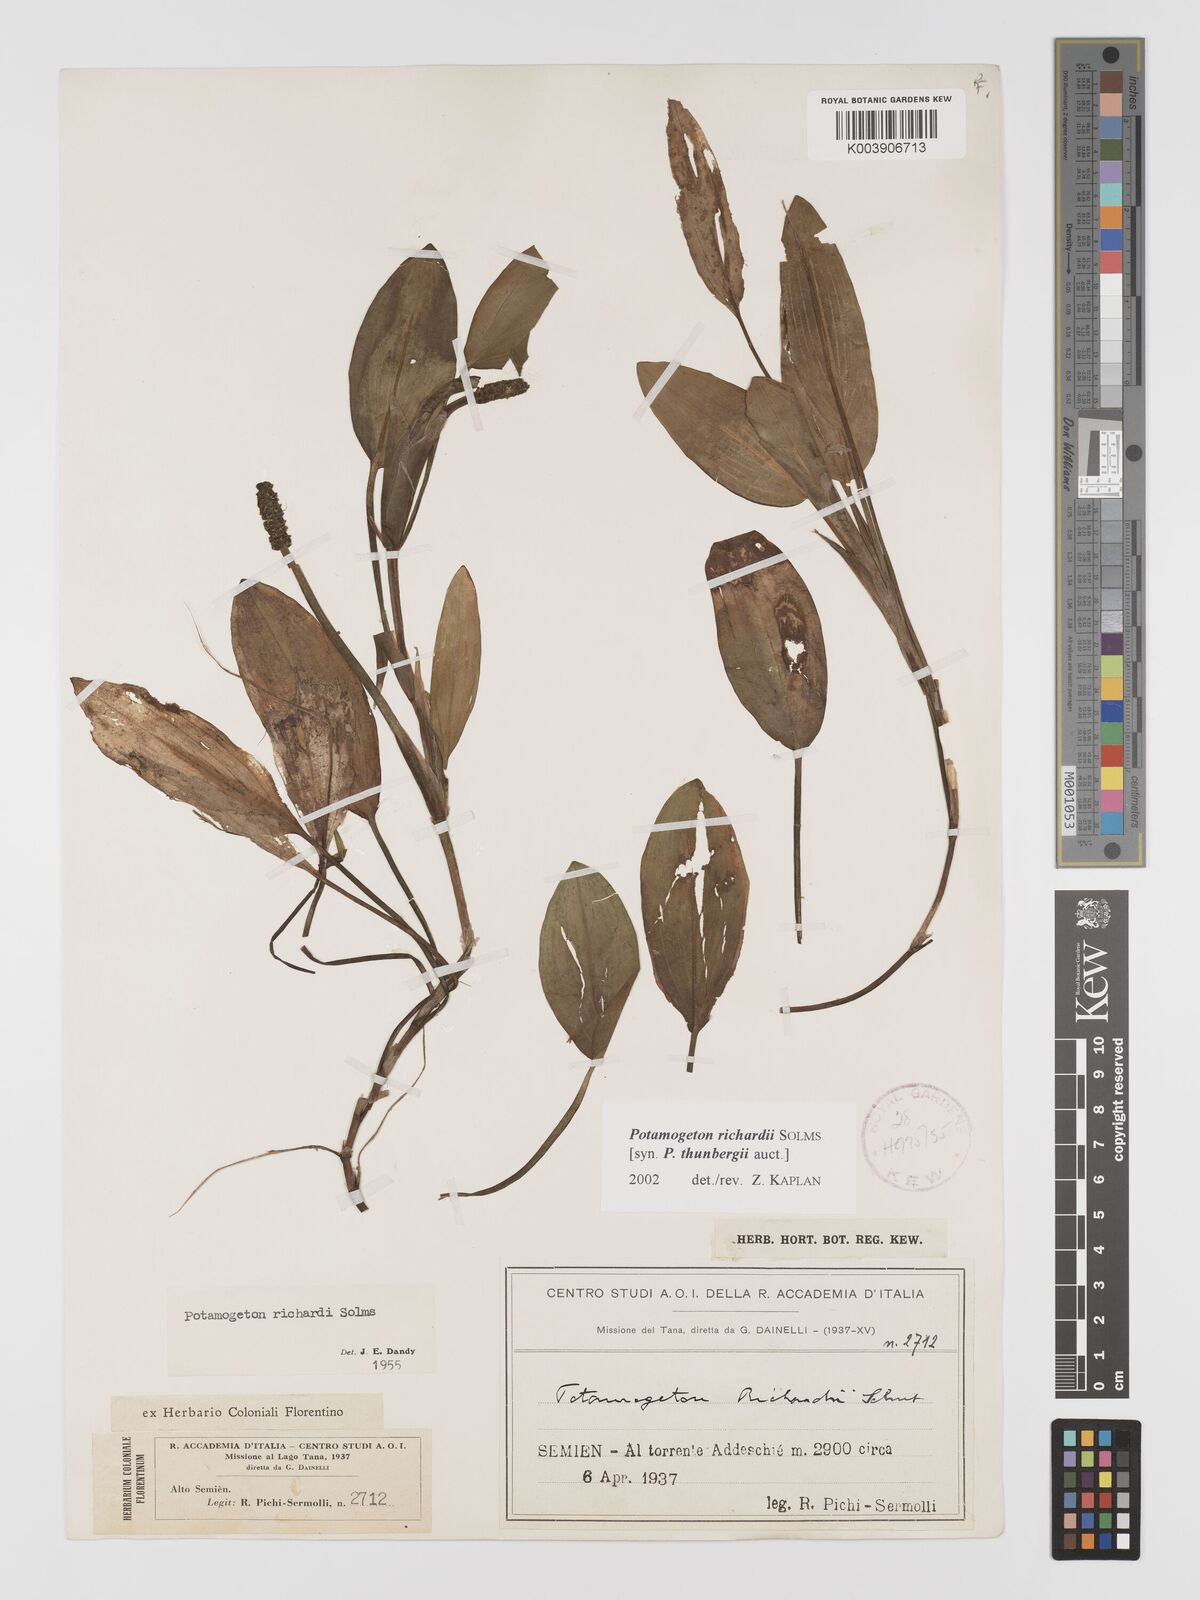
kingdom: Plantae
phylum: Tracheophyta
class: Liliopsida
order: Alismatales
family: Potamogetonaceae
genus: Potamogeton
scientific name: Potamogeton nodosus
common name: Loddon pondweed
